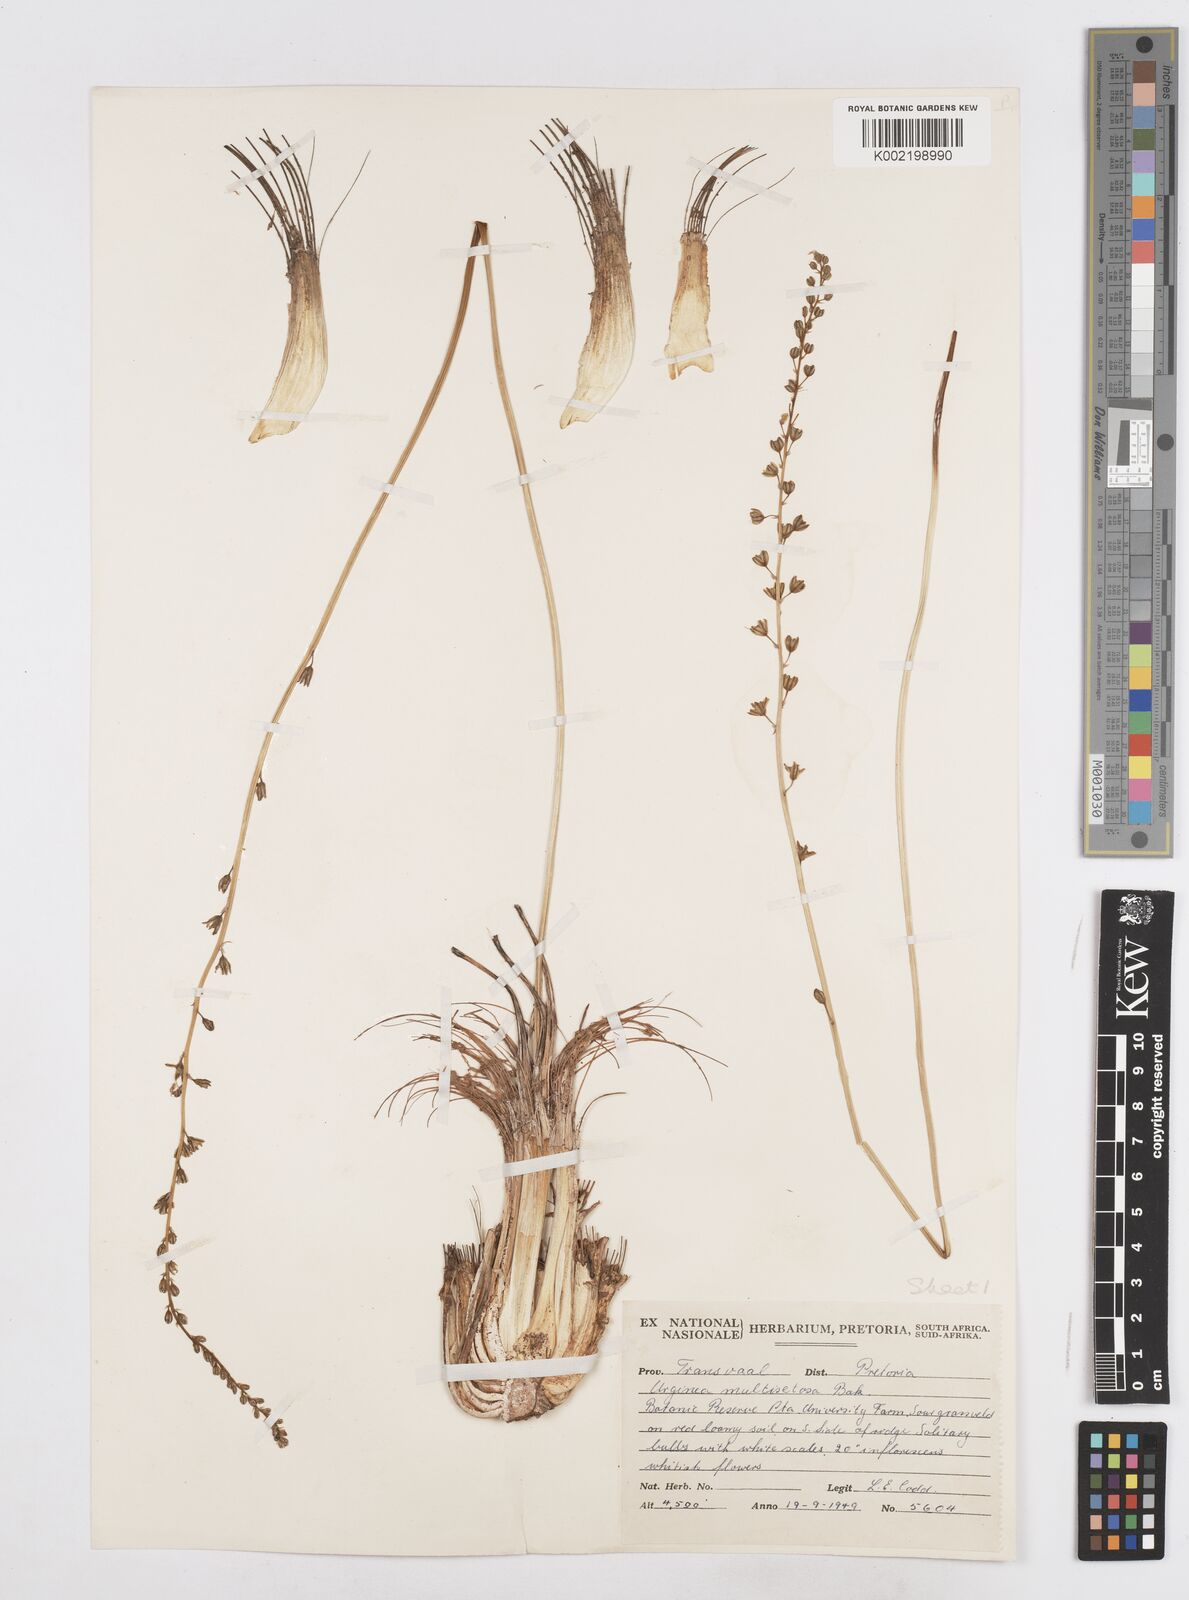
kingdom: Plantae
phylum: Tracheophyta
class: Liliopsida
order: Asparagales
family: Asparagaceae
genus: Drimia
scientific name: Drimia multisetosa
